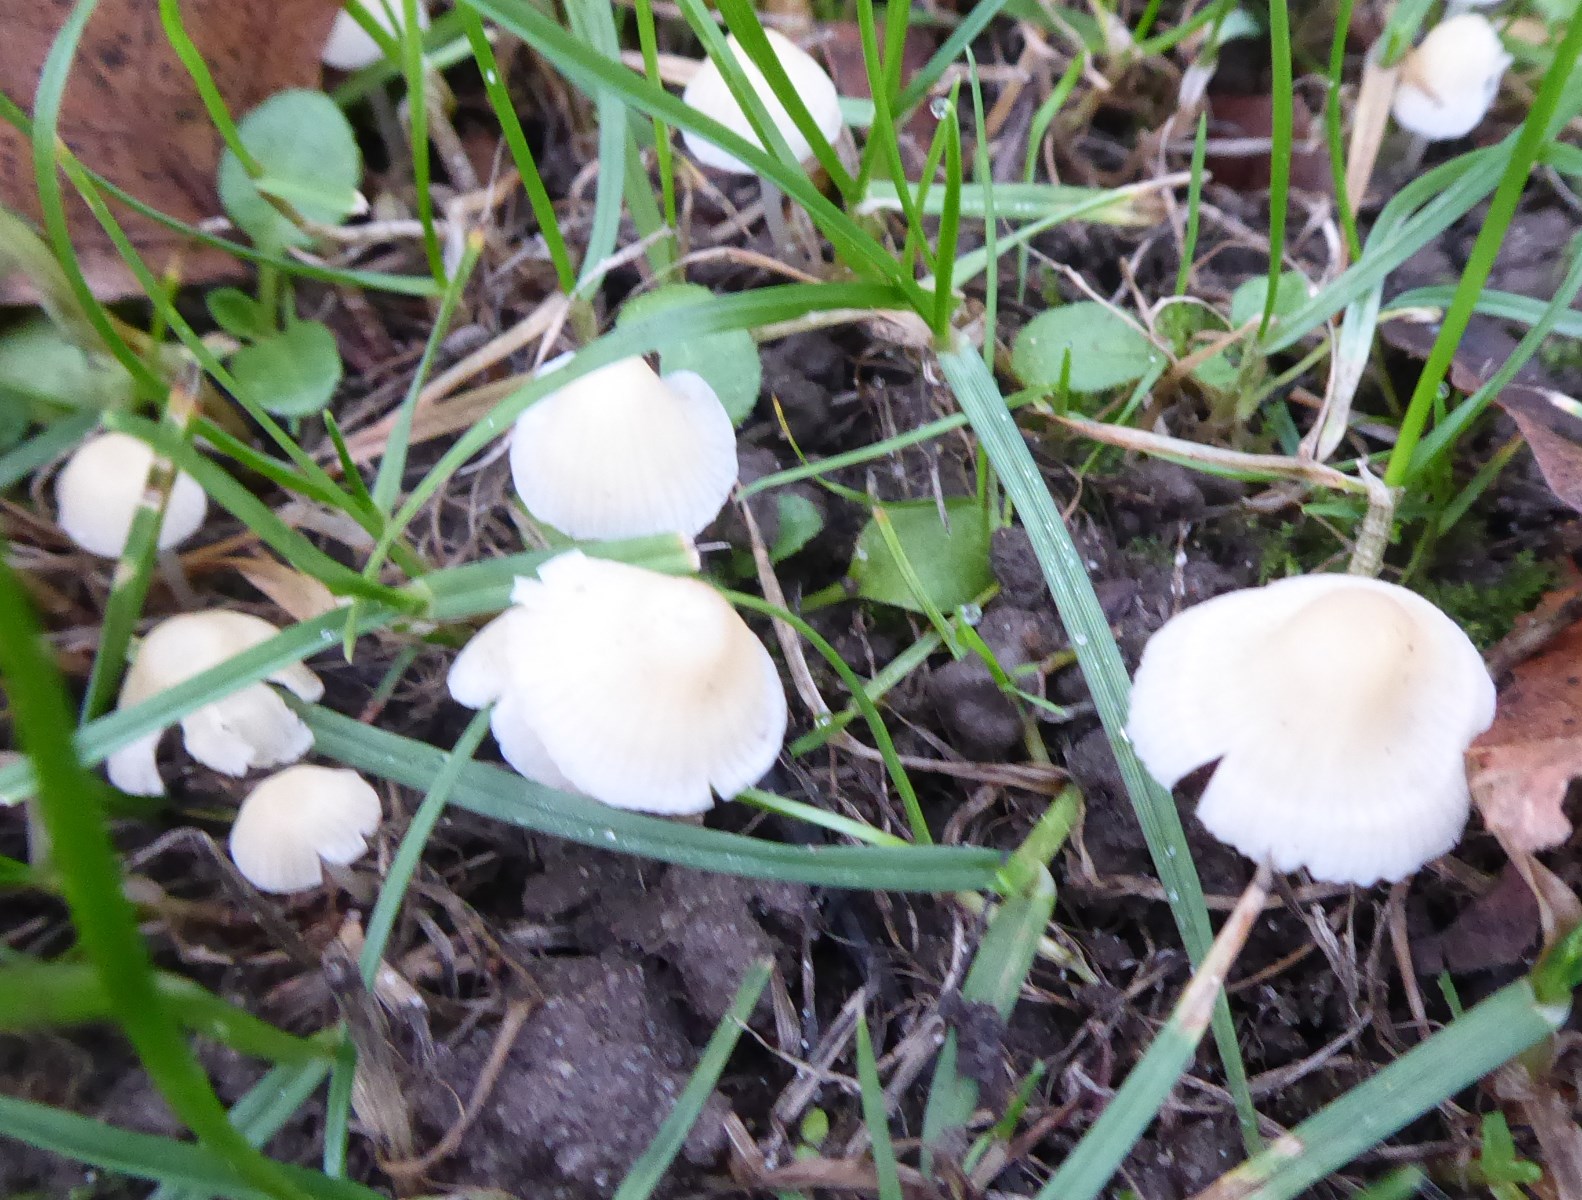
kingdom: Fungi
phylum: Basidiomycota
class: Agaricomycetes
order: Agaricales
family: Mycenaceae
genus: Atheniella
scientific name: Atheniella flavoalba
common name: gulhvid huesvamp
